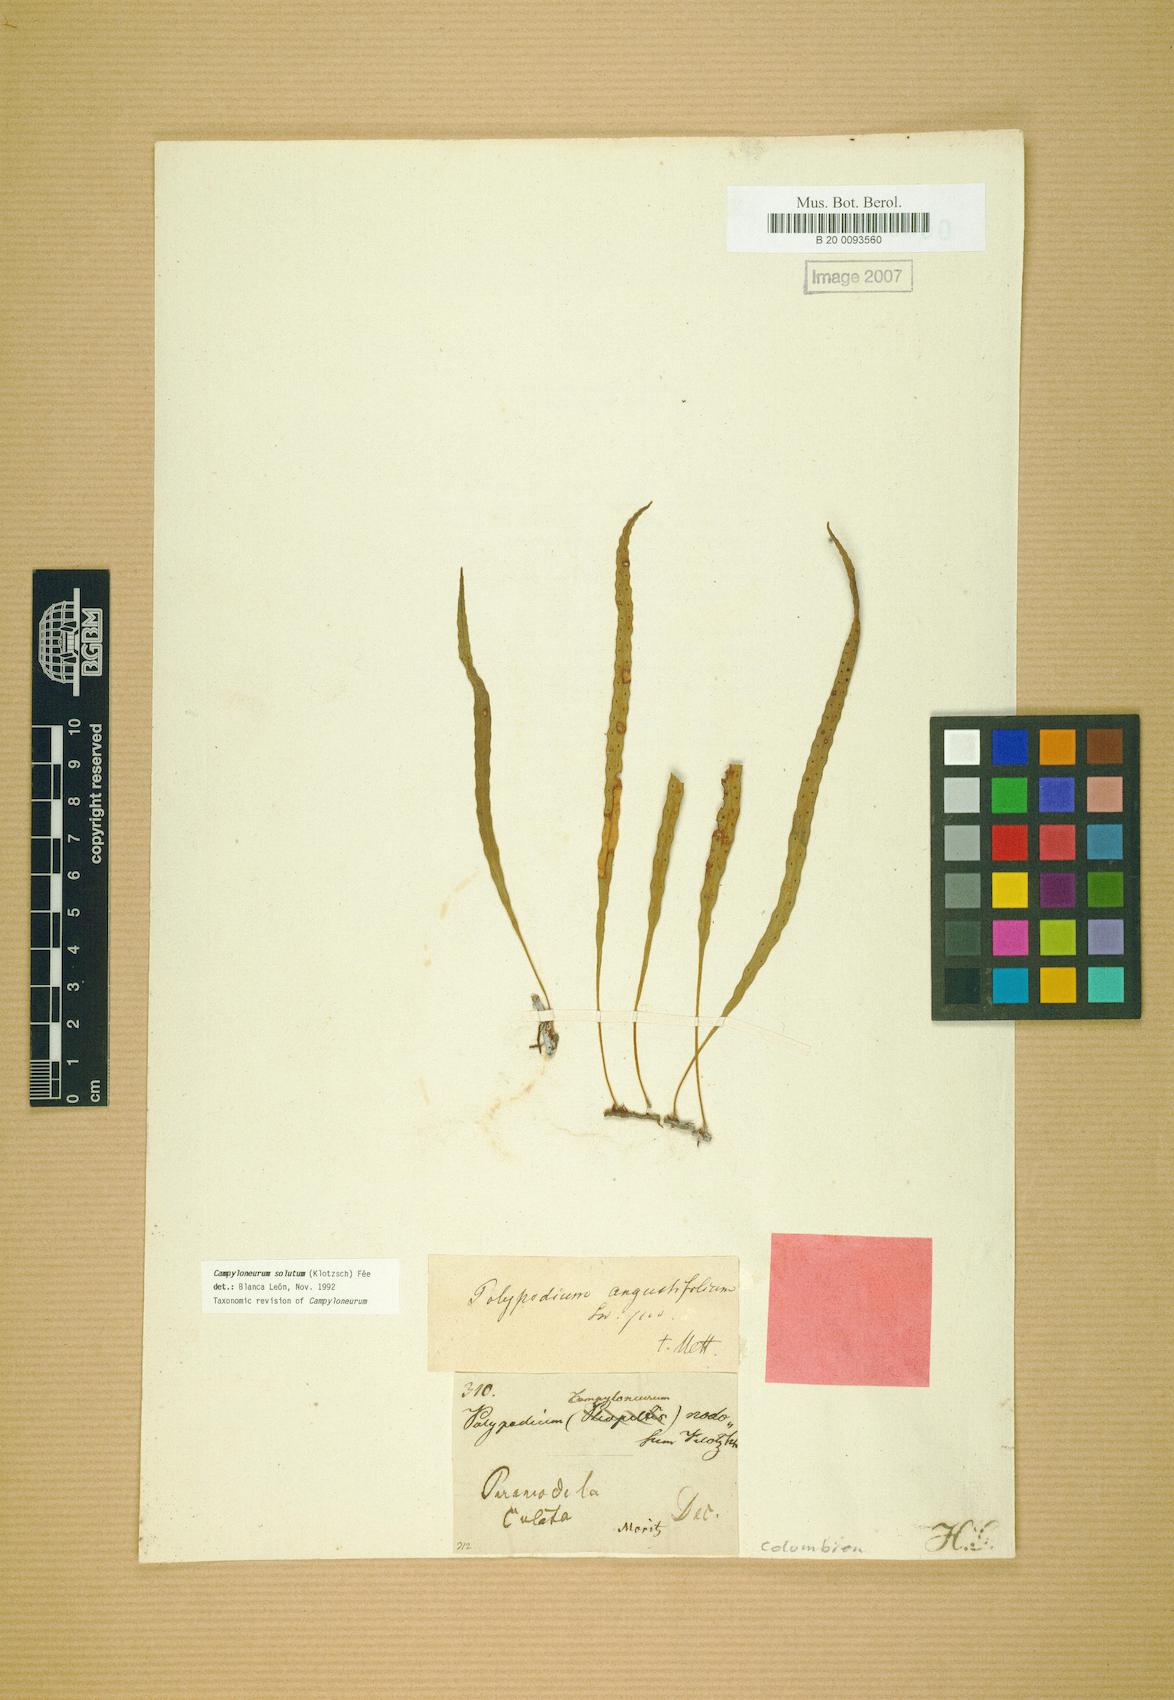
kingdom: Plantae
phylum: Tracheophyta
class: Polypodiopsida
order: Polypodiales
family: Polypodiaceae
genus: Campyloneurum
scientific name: Campyloneurum solutum
